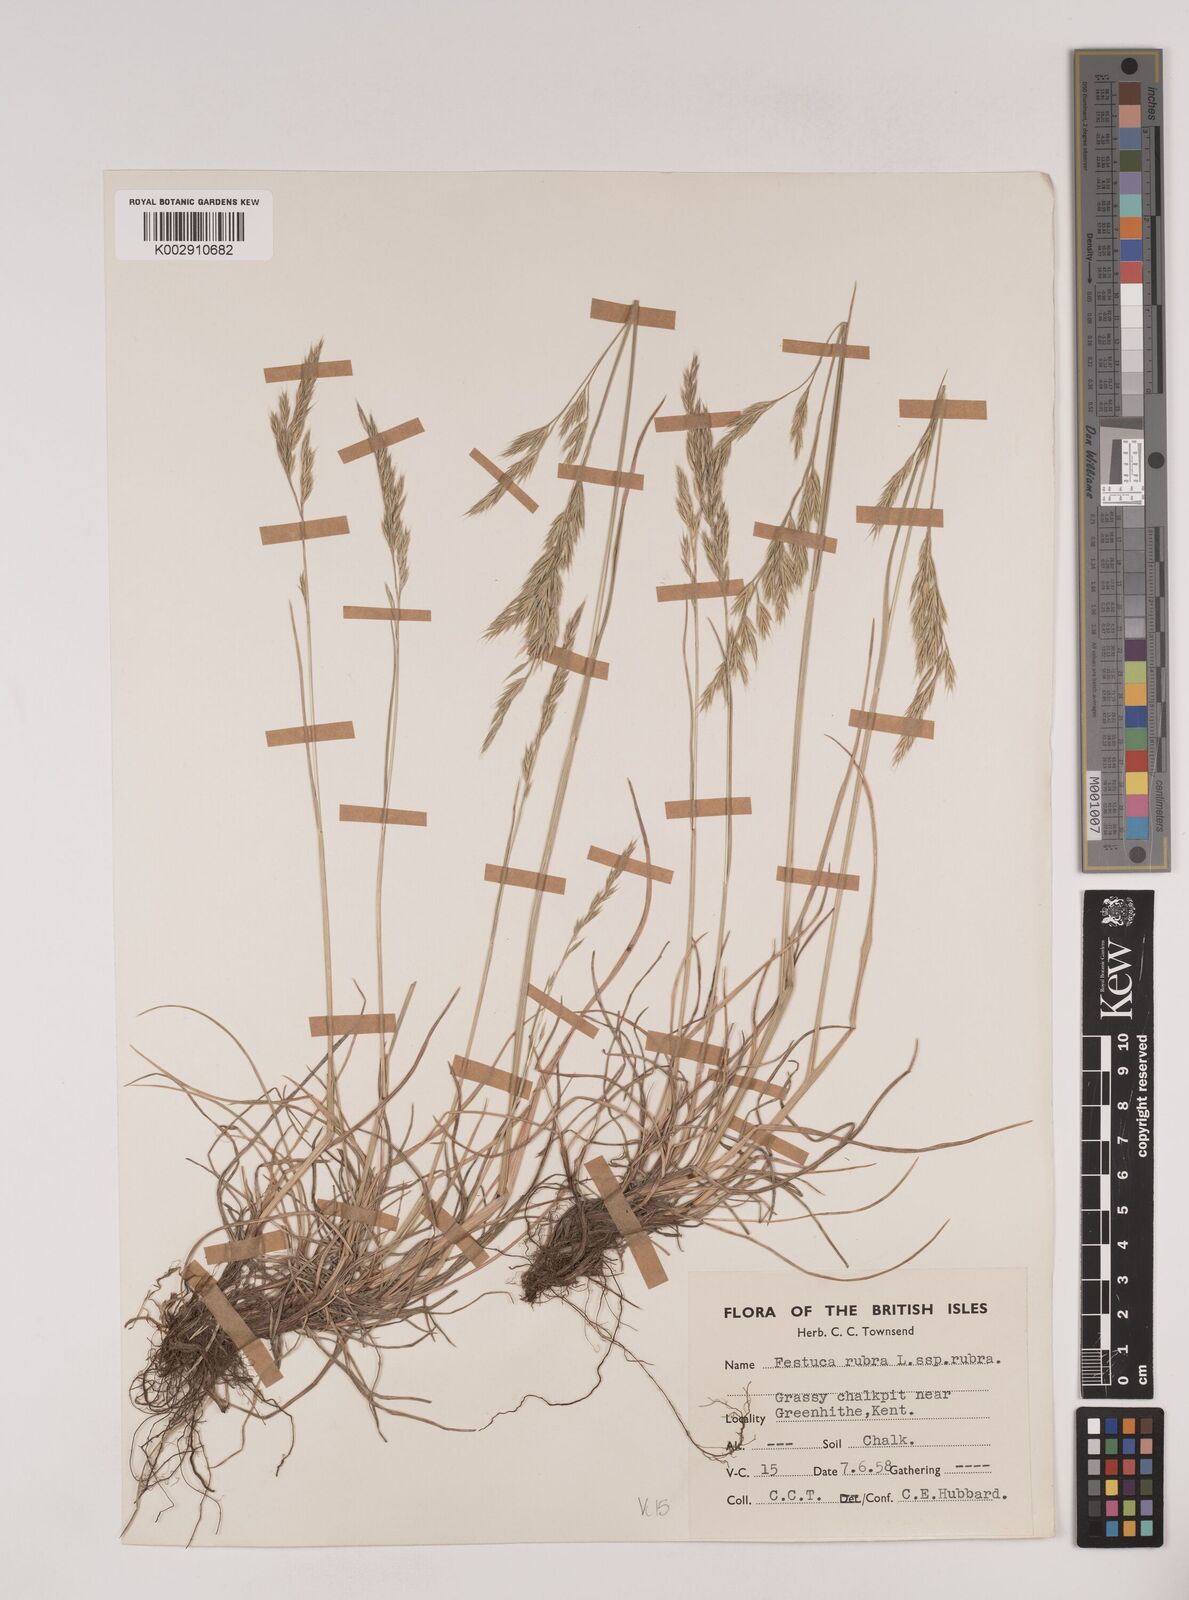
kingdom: Plantae
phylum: Tracheophyta
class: Liliopsida
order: Poales
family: Poaceae
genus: Festuca
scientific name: Festuca rubra
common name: Red fescue
